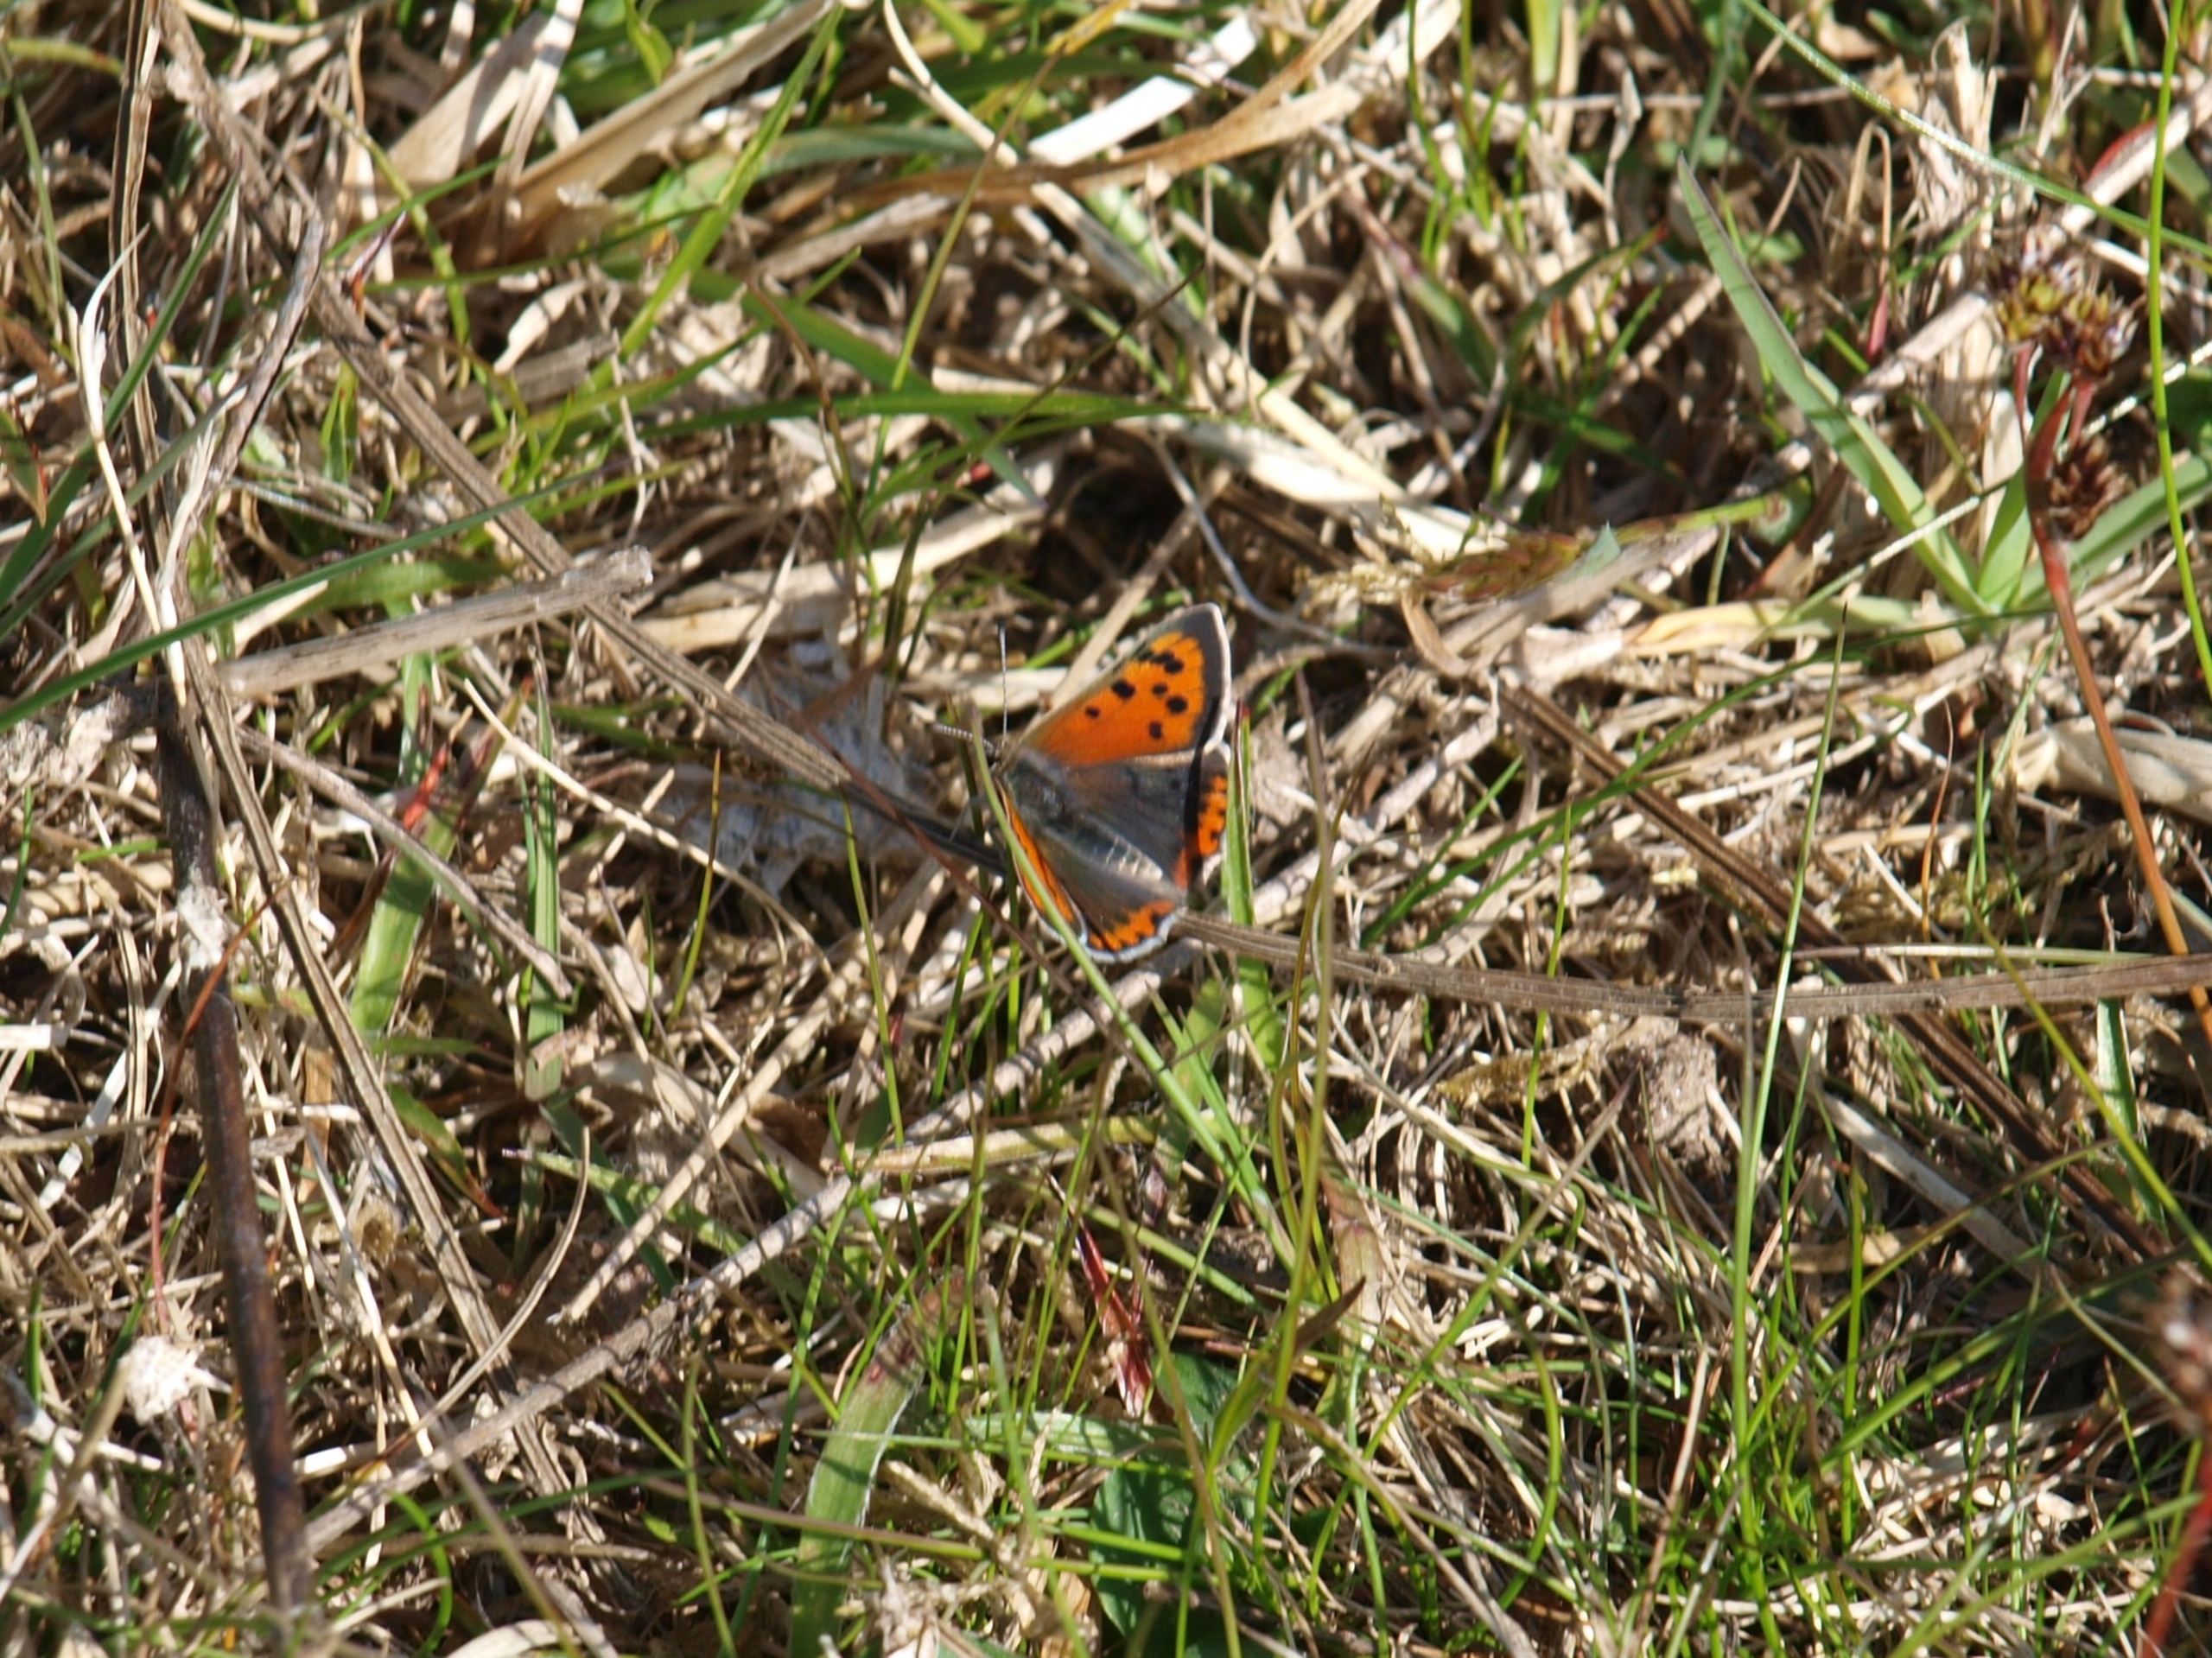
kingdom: Animalia
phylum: Arthropoda
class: Insecta
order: Lepidoptera
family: Lycaenidae
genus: Lycaena
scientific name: Lycaena phlaeas
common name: Lille ildfugl
